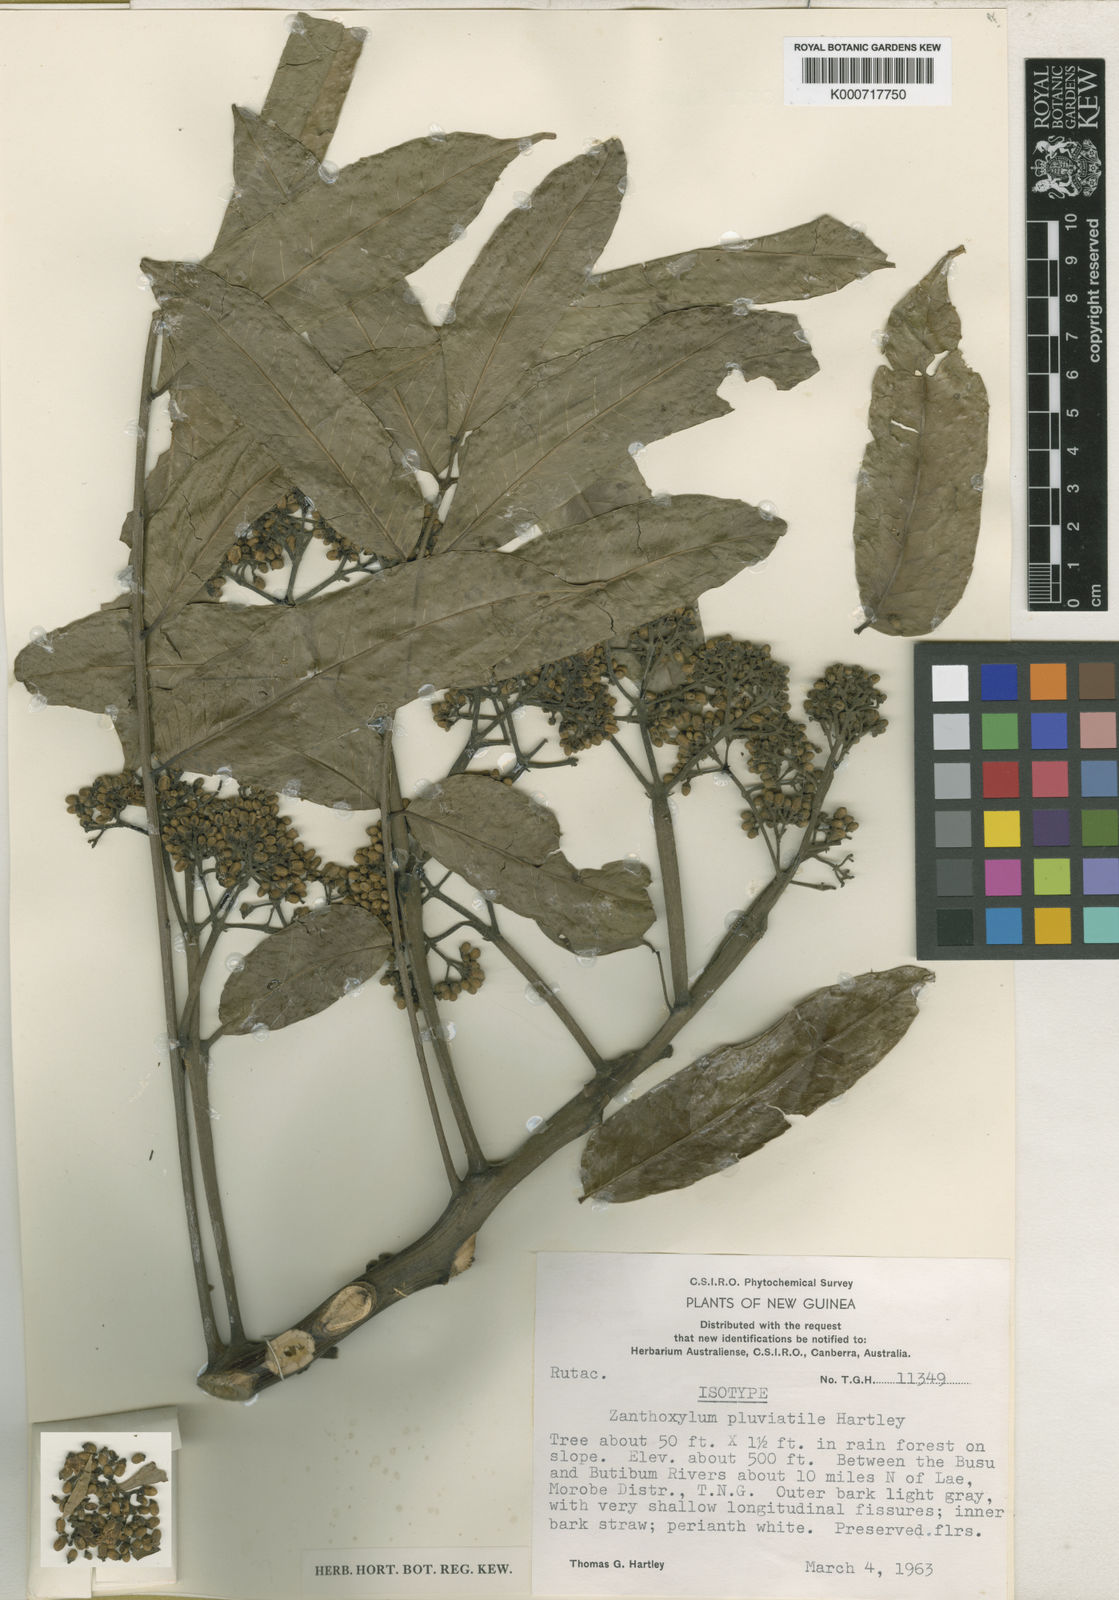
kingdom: Plantae
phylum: Tracheophyta
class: Magnoliopsida
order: Sapindales
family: Rutaceae
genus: Zanthoxylum
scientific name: Zanthoxylum pluviatile
